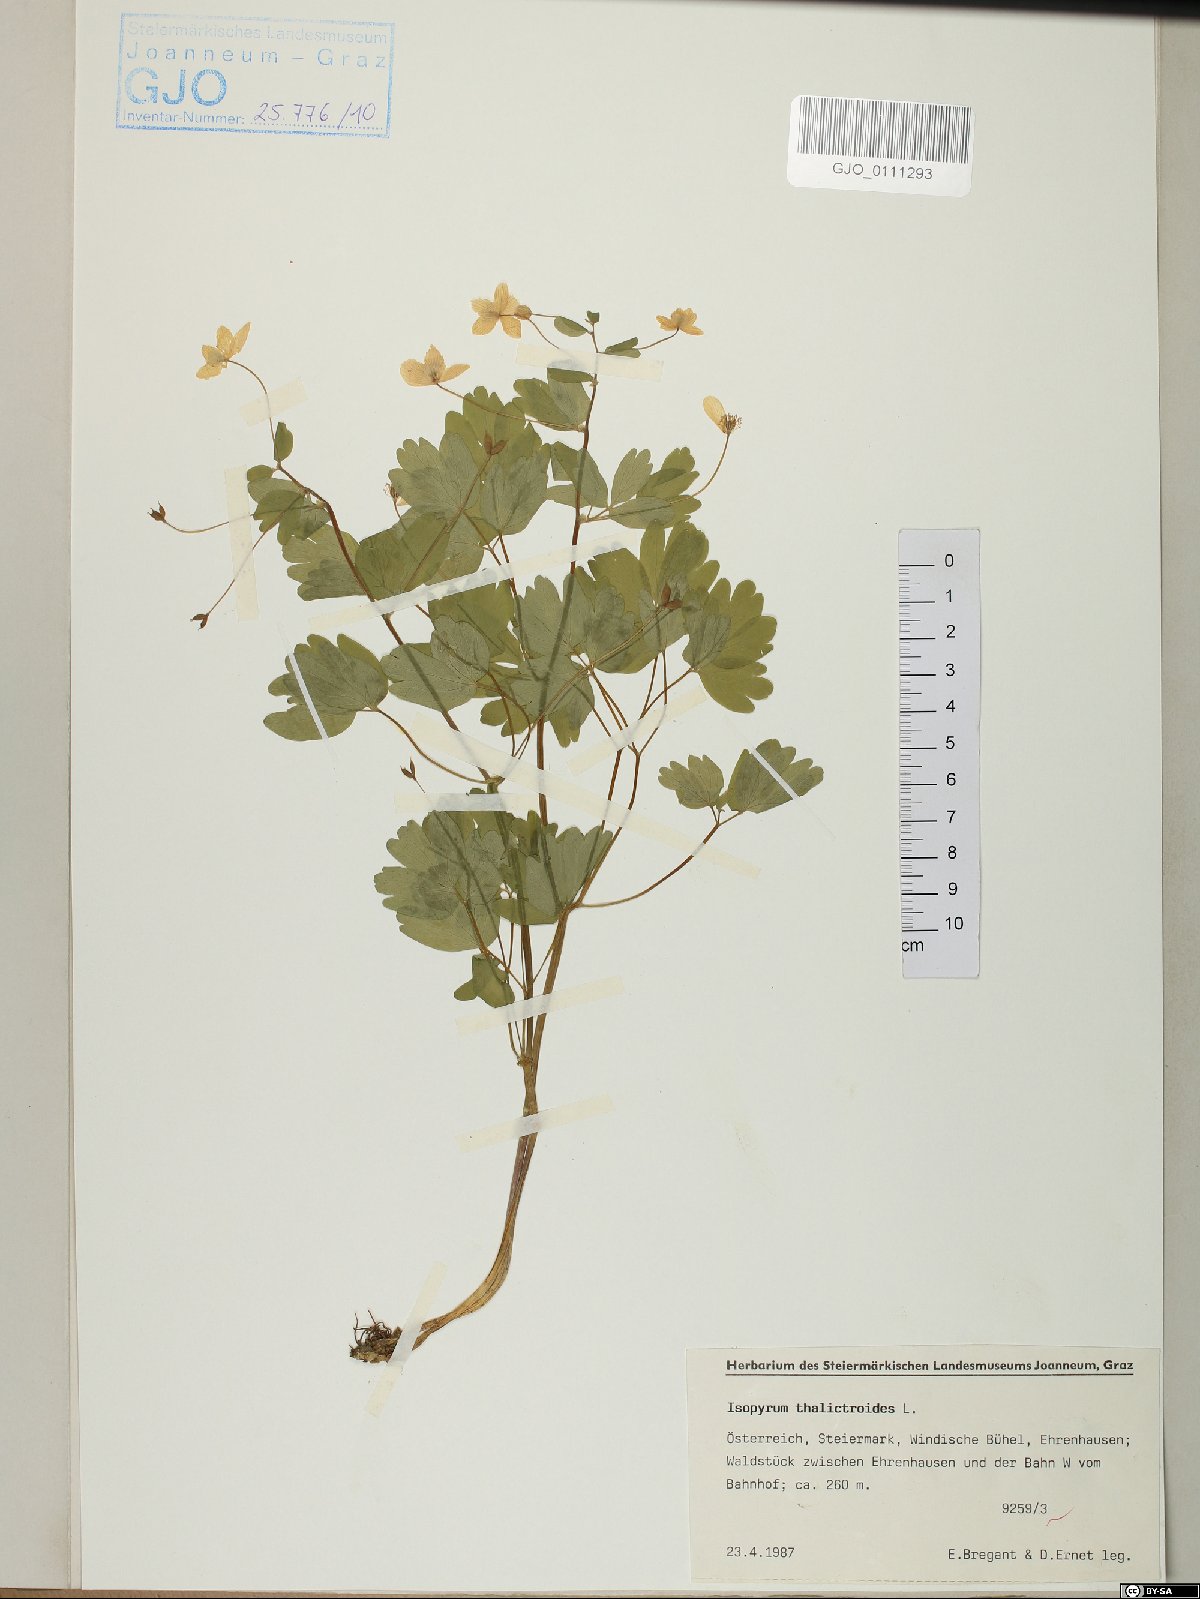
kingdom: Plantae
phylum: Tracheophyta
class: Magnoliopsida
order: Ranunculales
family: Ranunculaceae
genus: Isopyrum
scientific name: Isopyrum thalictroides
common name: Isopyrum
